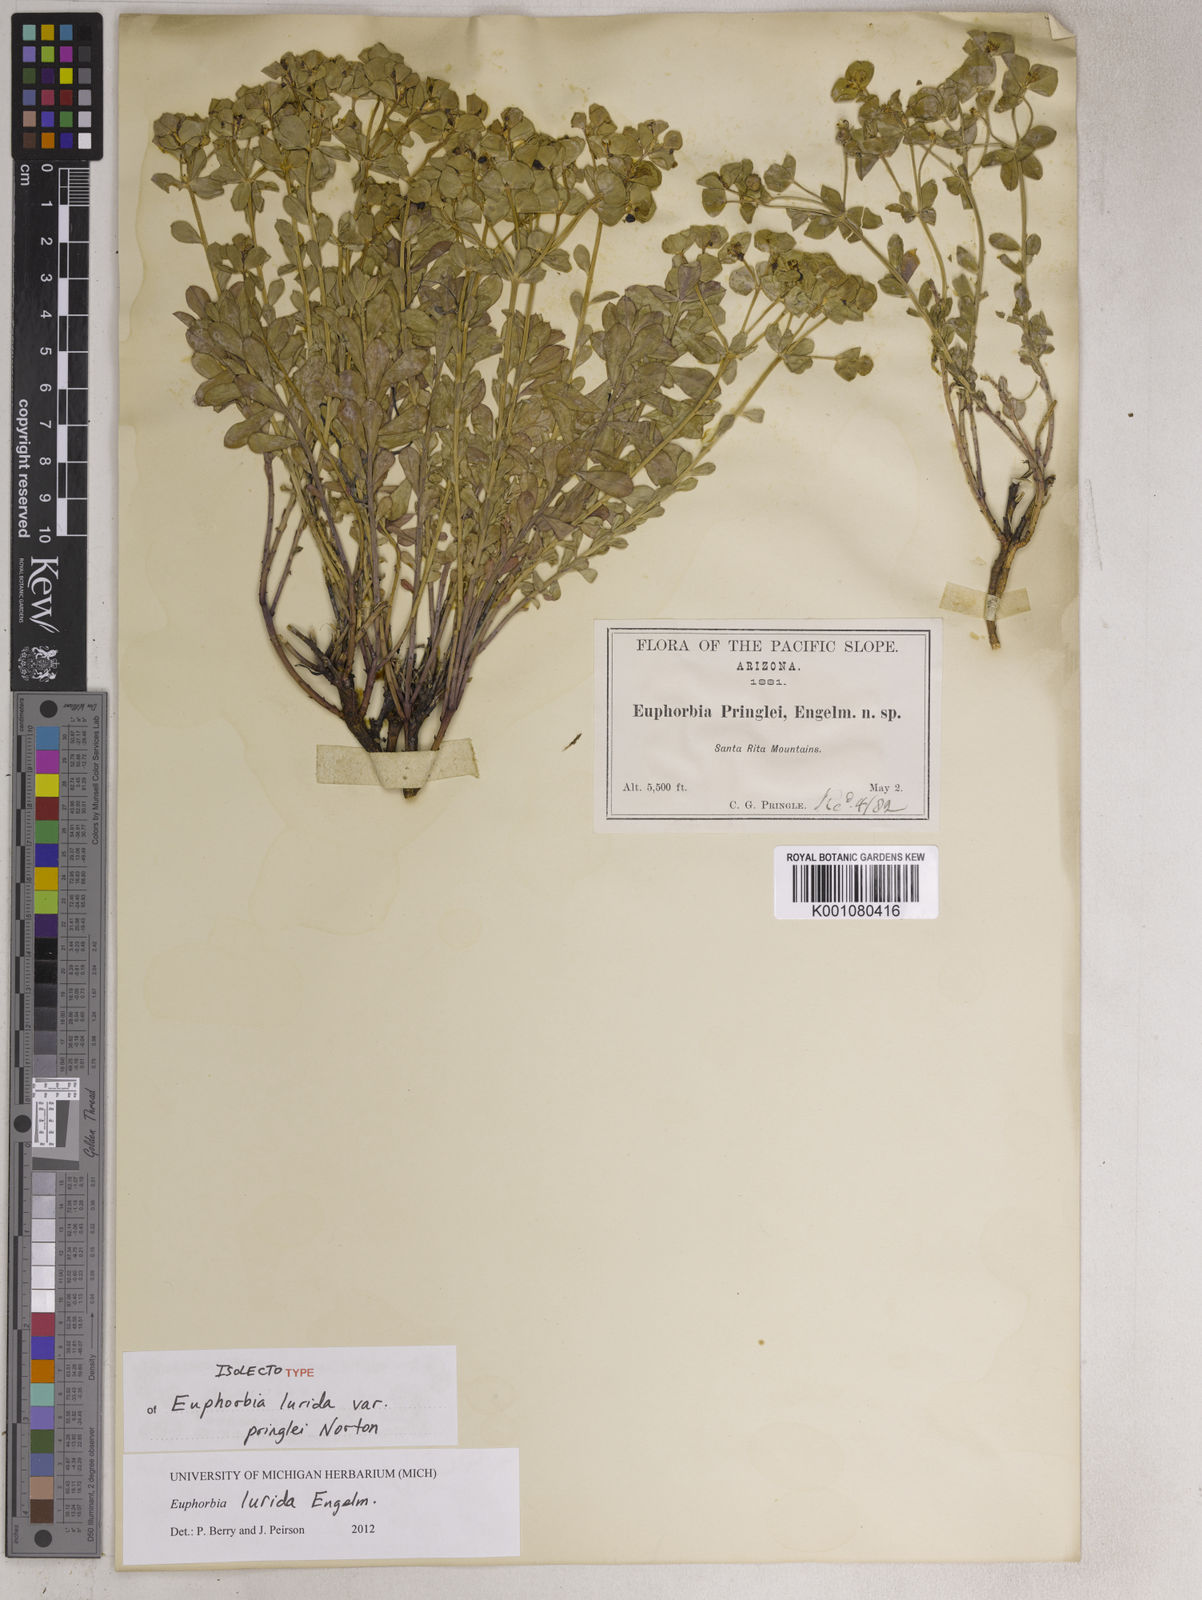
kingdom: Plantae
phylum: Tracheophyta
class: Magnoliopsida
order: Malpighiales
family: Euphorbiaceae
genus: Euphorbia
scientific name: Euphorbia
